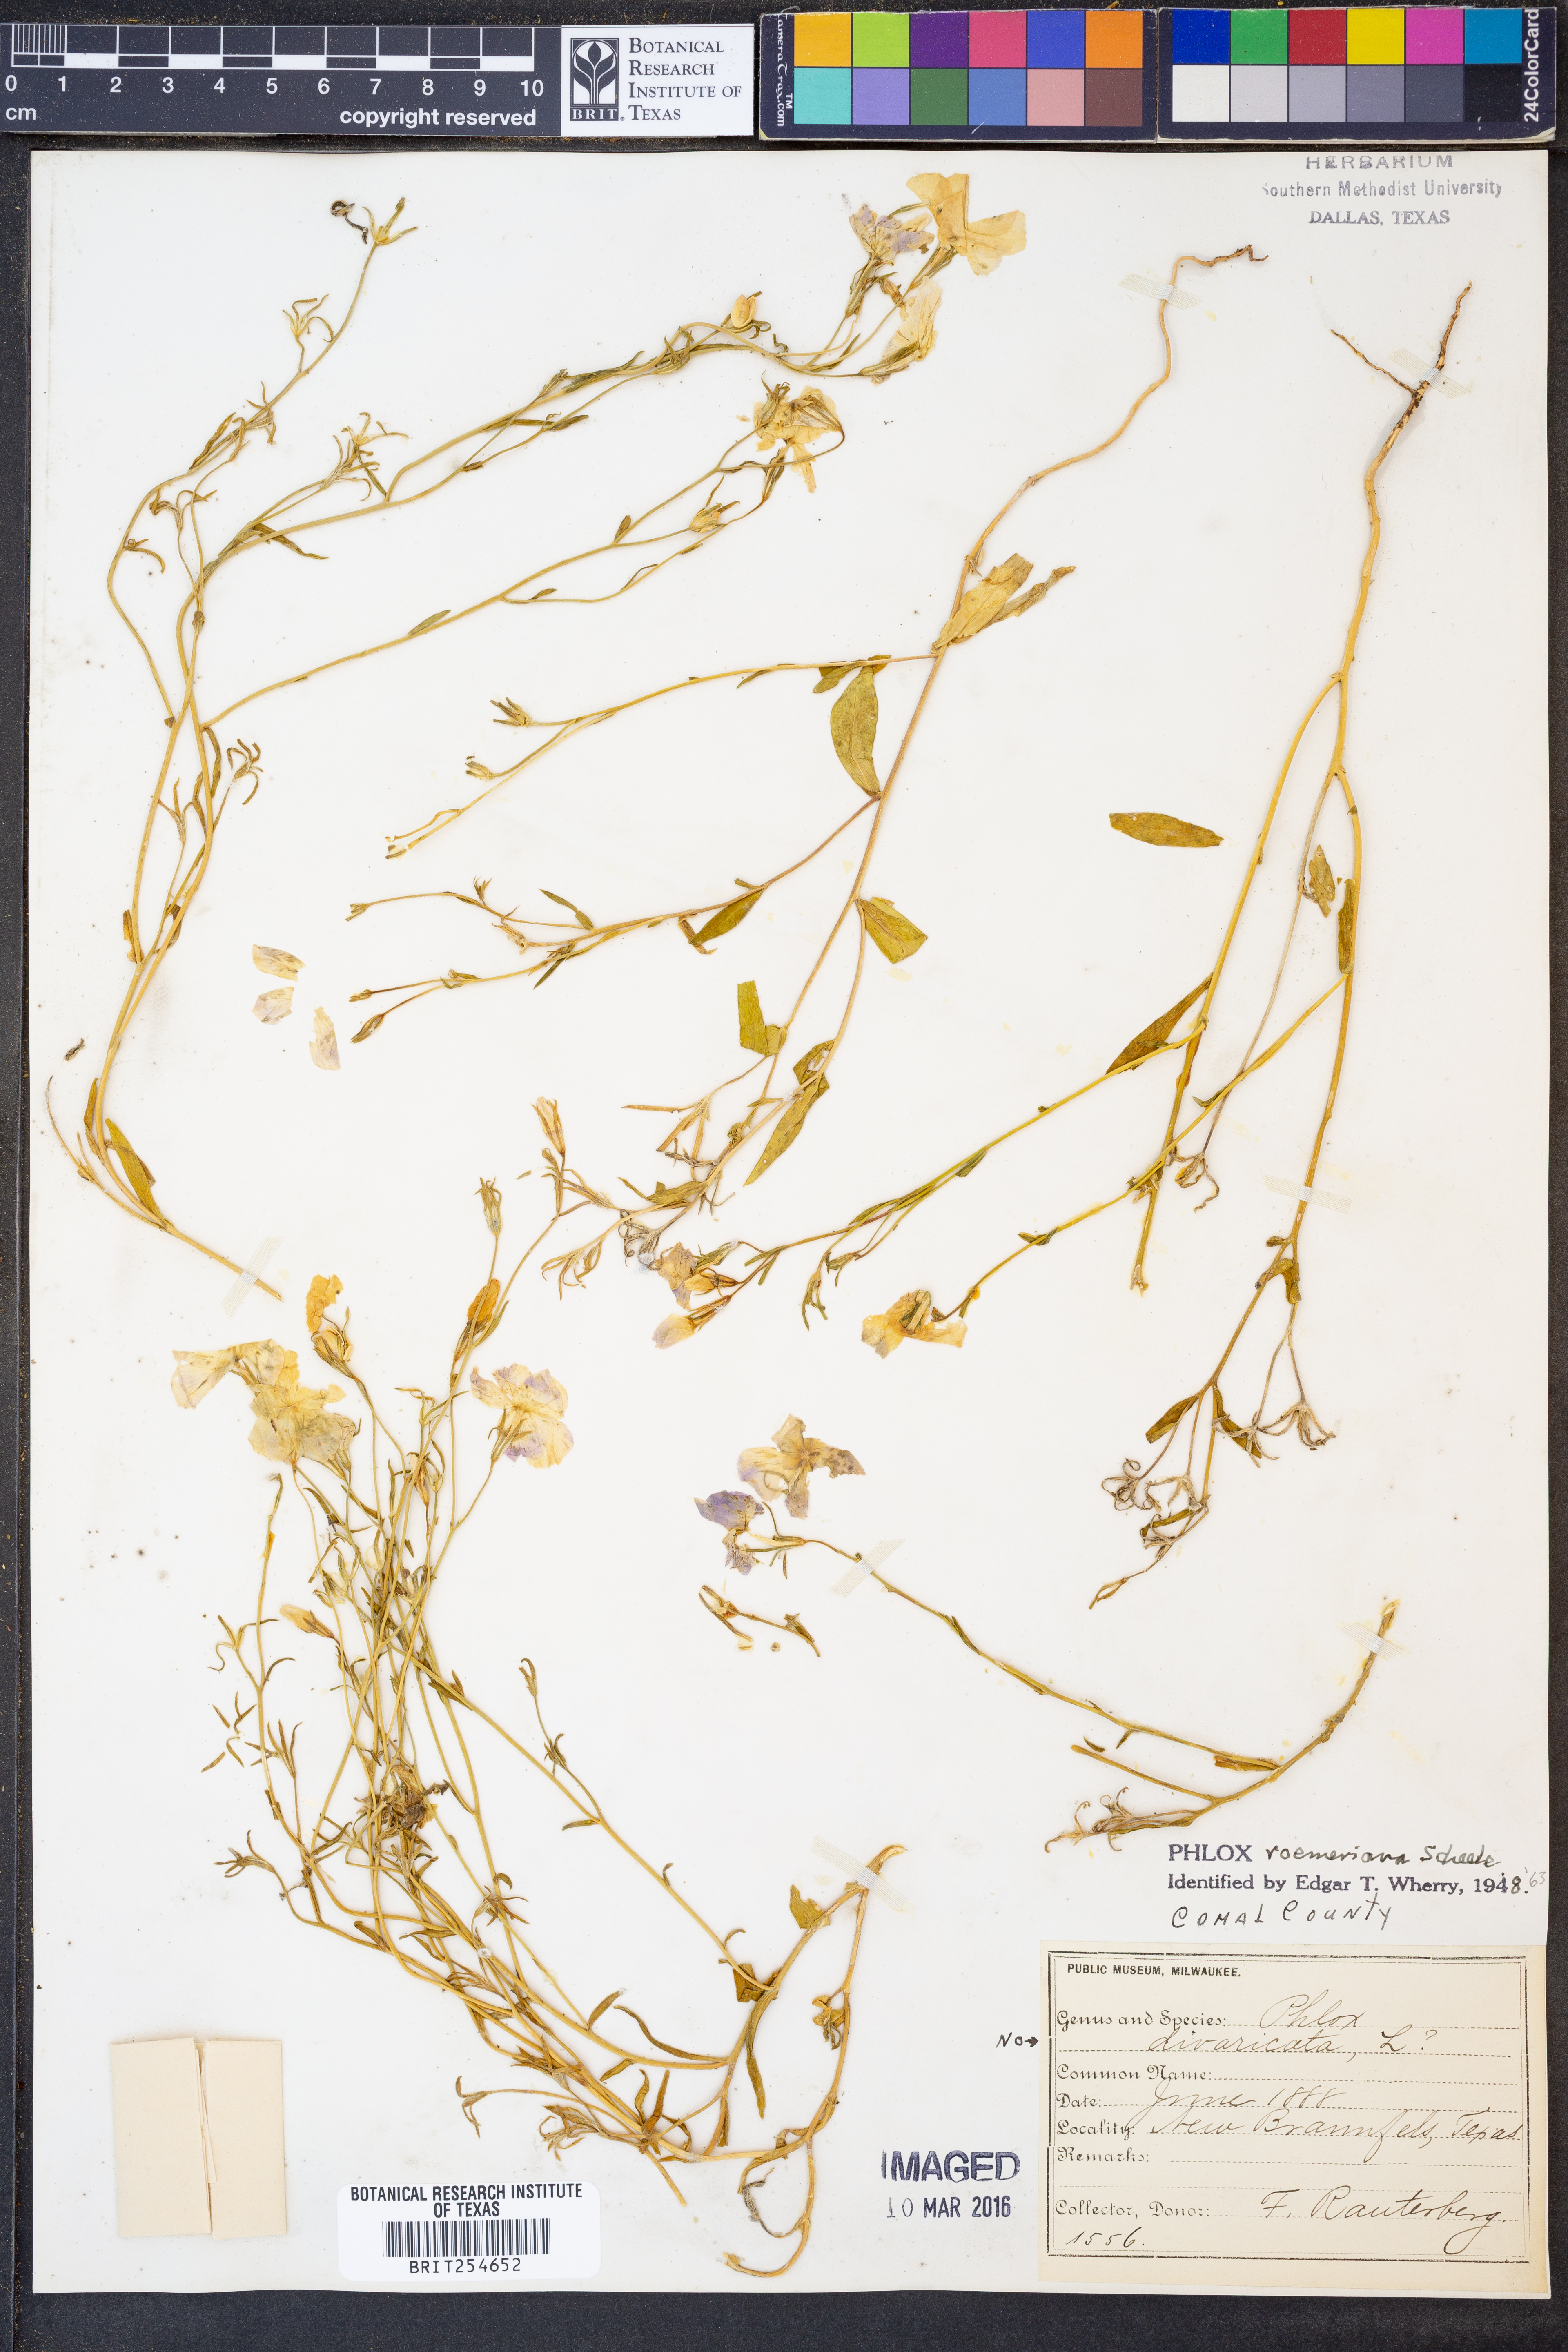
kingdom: Plantae
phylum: Tracheophyta
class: Magnoliopsida
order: Ericales
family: Polemoniaceae
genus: Phlox
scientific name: Phlox roemeriana
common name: Roemer's phlox
